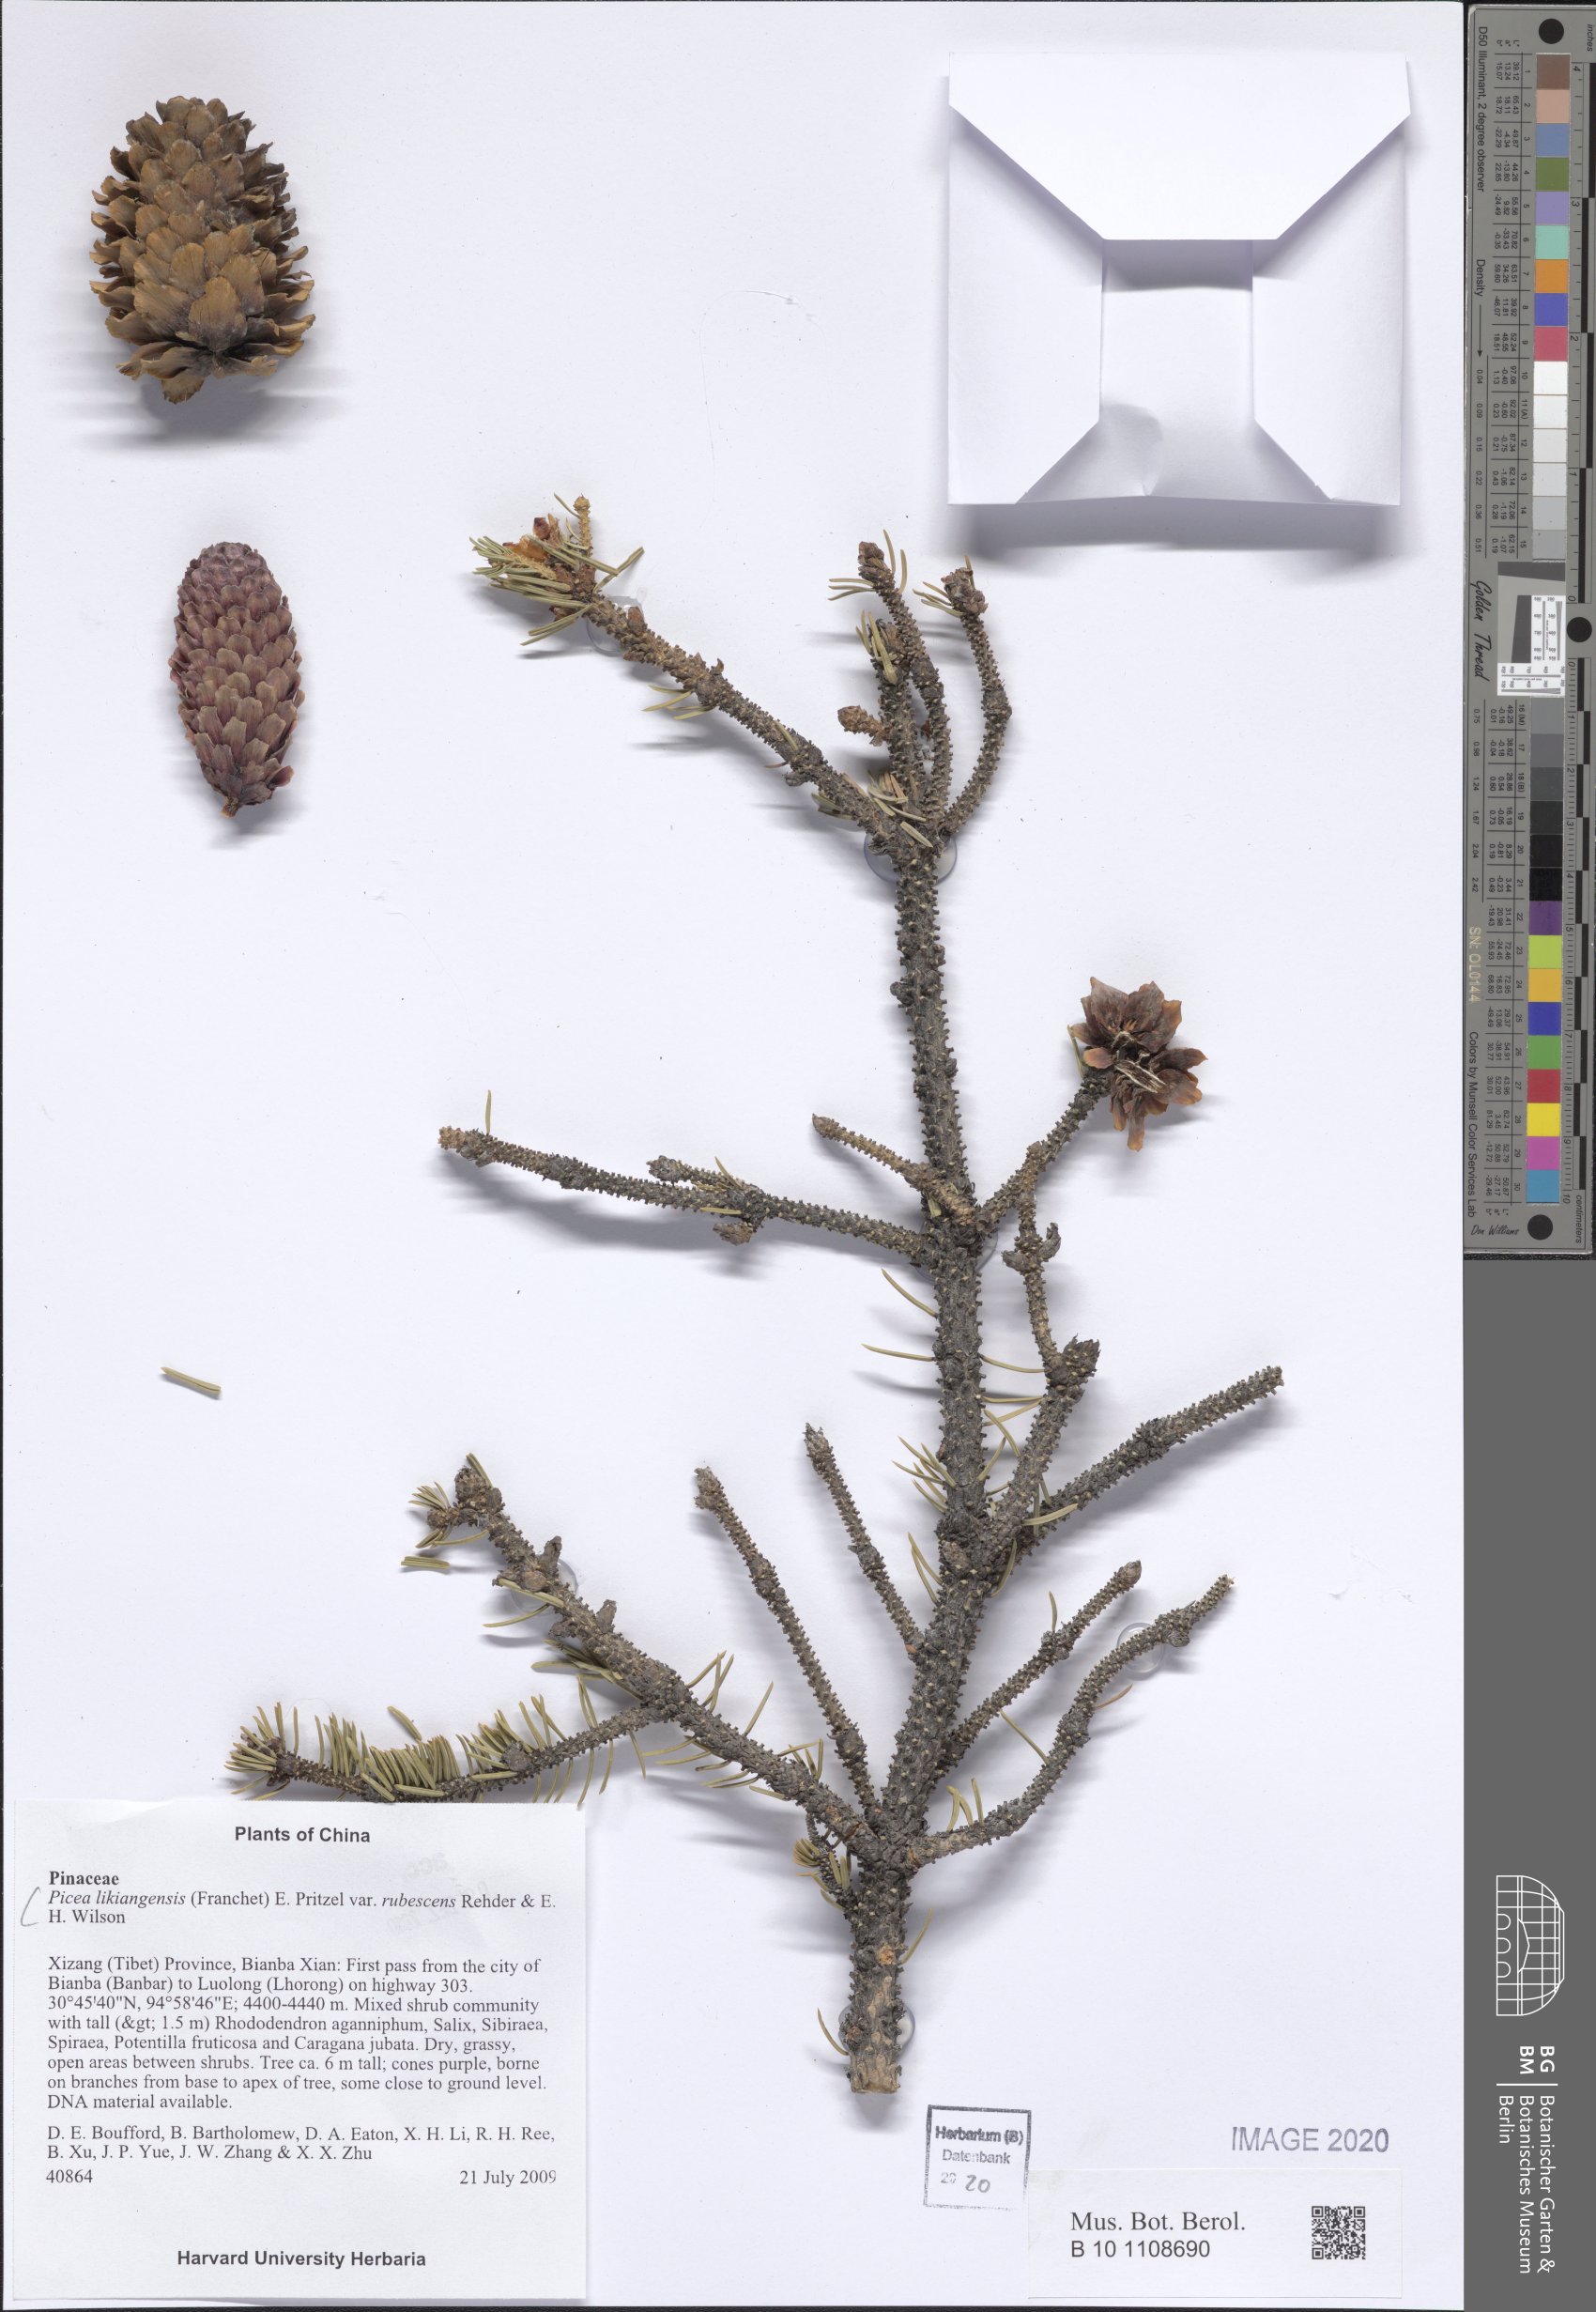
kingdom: Plantae
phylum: Tracheophyta
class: Pinopsida
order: Pinales
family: Pinaceae
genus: Picea
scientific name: Picea likiangensis
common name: Likiang spruce
